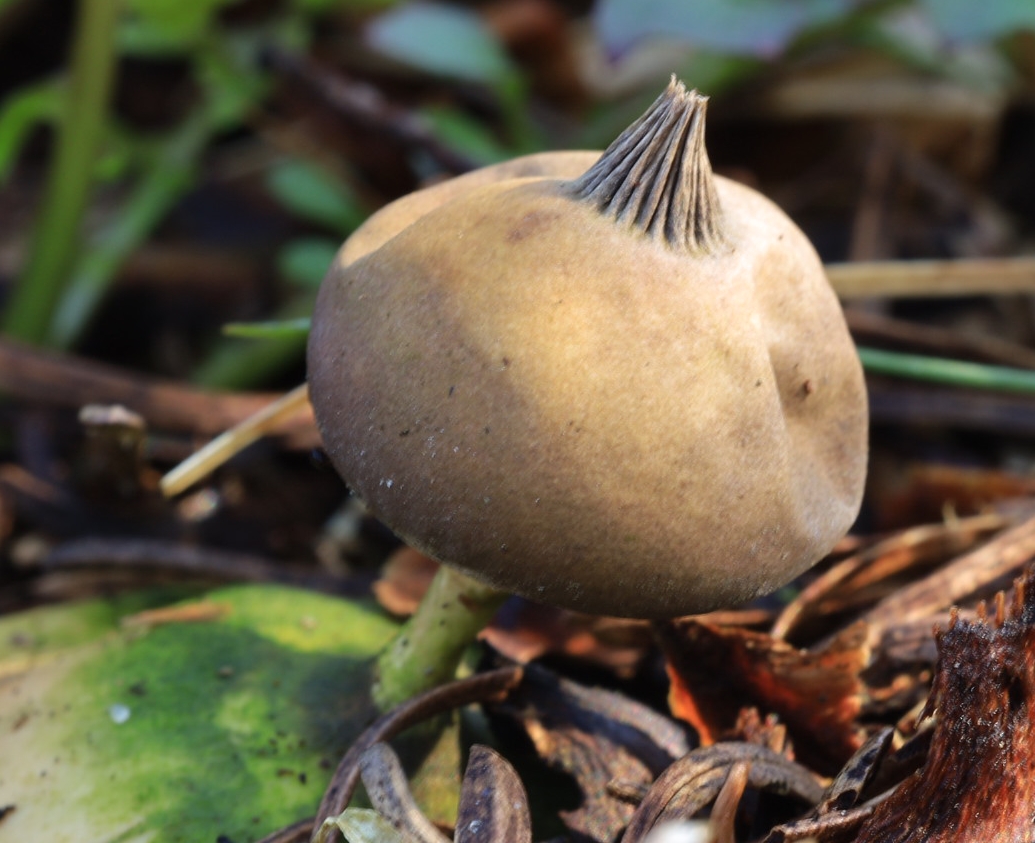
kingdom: Fungi
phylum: Basidiomycota
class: Agaricomycetes
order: Geastrales
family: Geastraceae
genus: Geastrum
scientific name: Geastrum pectinatum
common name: stilket stjernebold
